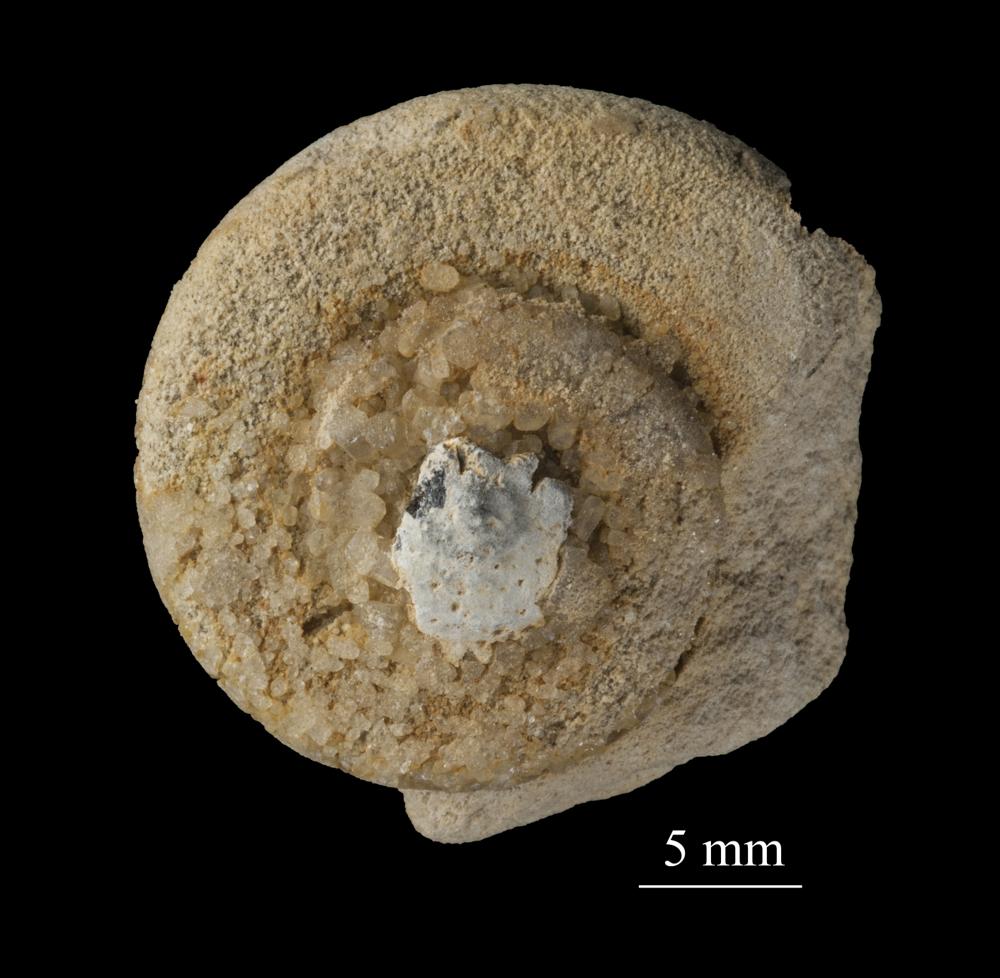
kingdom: Animalia
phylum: Mollusca
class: Gastropoda
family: Euomphalidae
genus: Euomphalus
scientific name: Euomphalus
